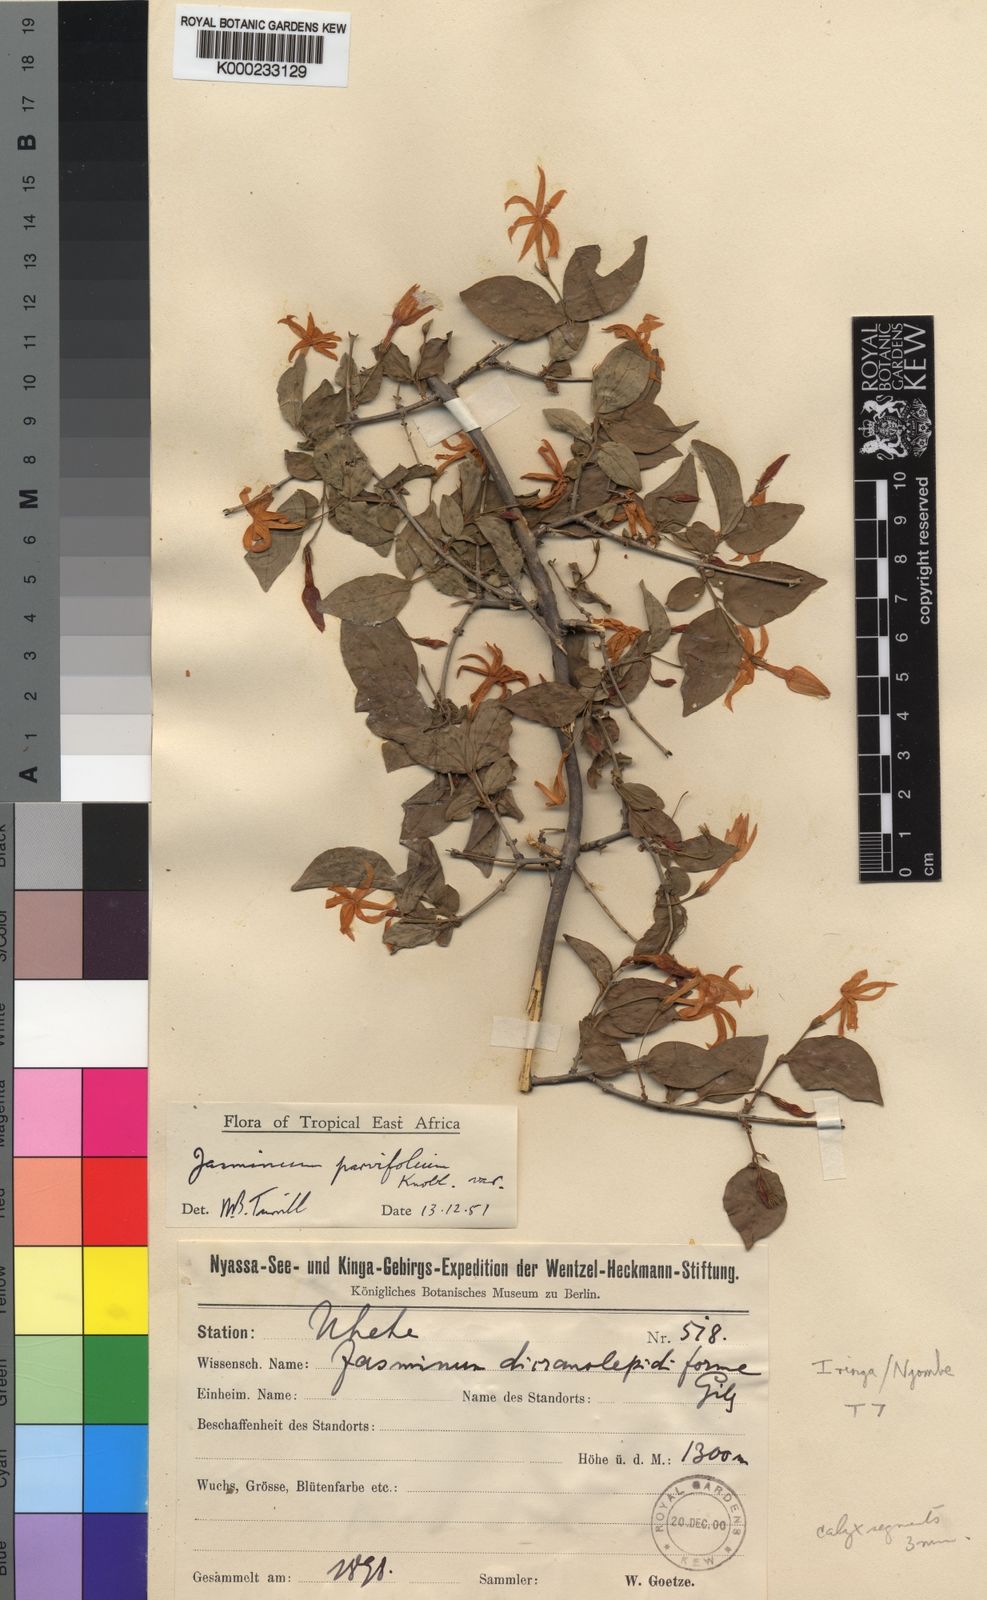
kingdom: Plantae
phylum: Tracheophyta
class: Magnoliopsida
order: Lamiales
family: Oleaceae
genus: Jasminum
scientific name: Jasminum streptopus
